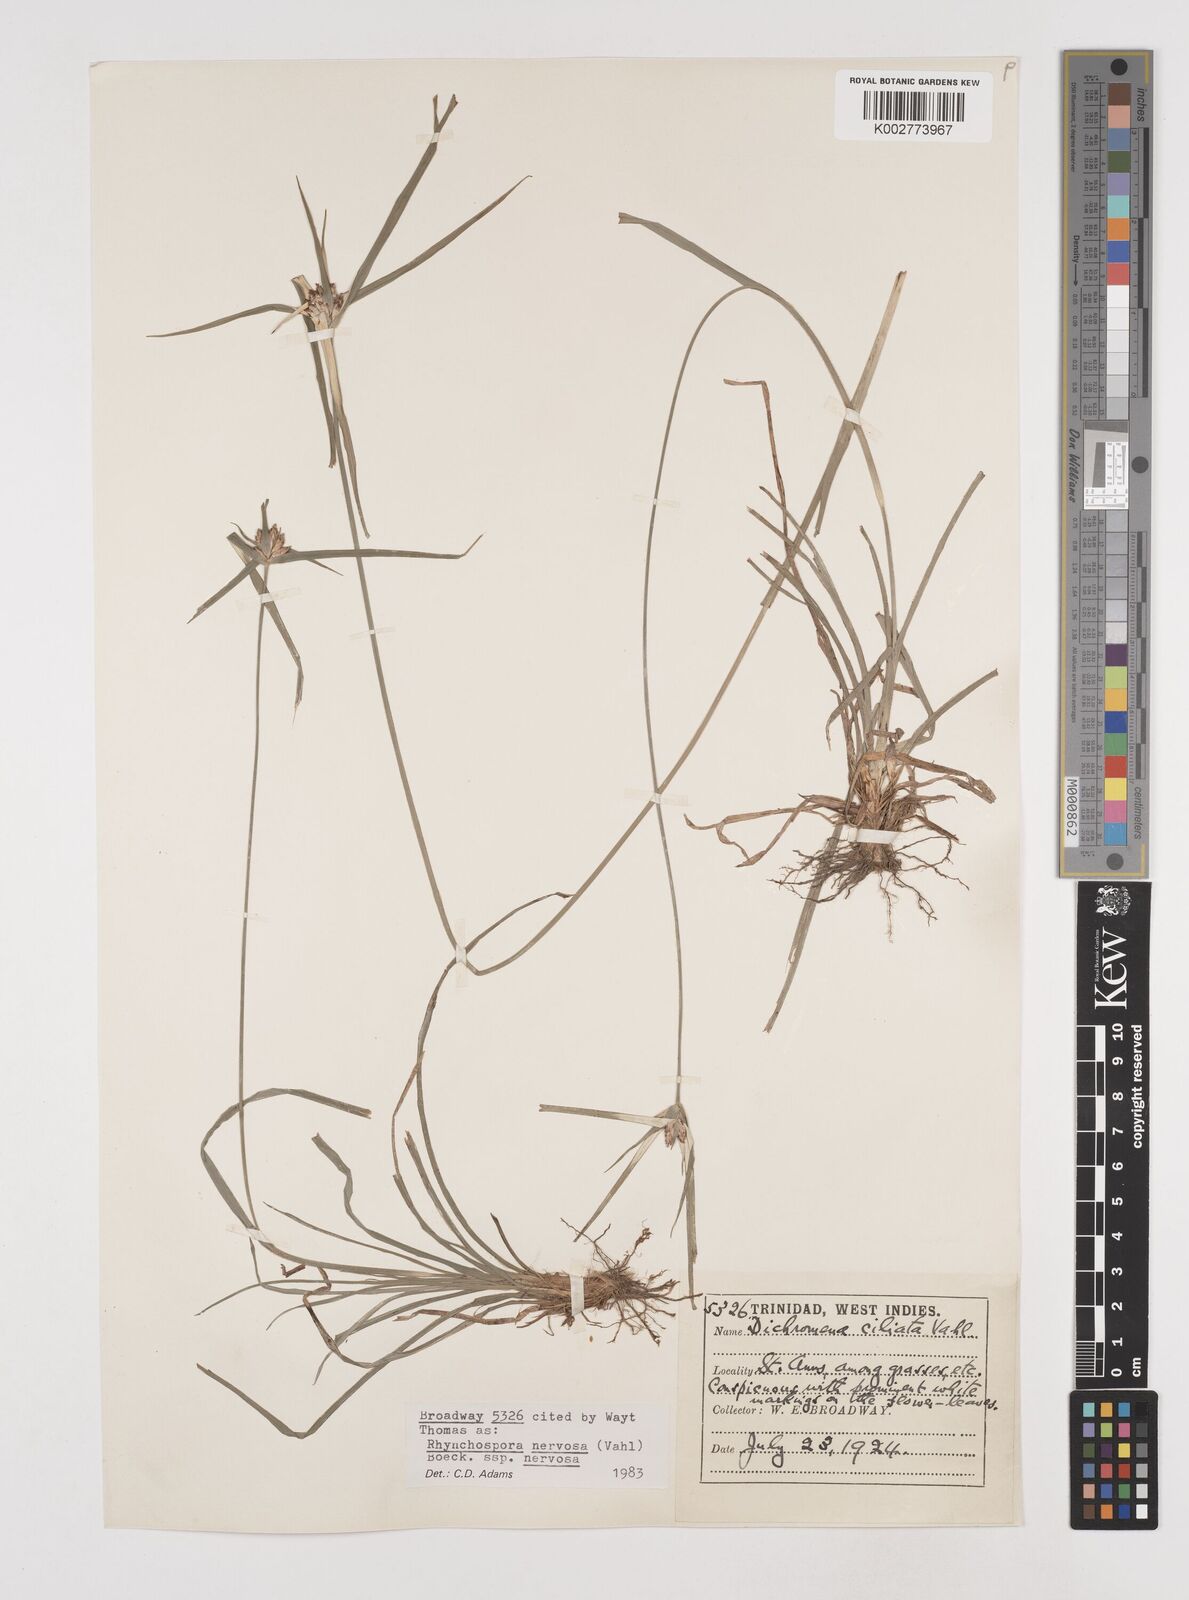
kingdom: Plantae
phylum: Tracheophyta
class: Liliopsida
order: Poales
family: Cyperaceae
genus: Rhynchospora
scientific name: Rhynchospora nervosa
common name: Star sedge
